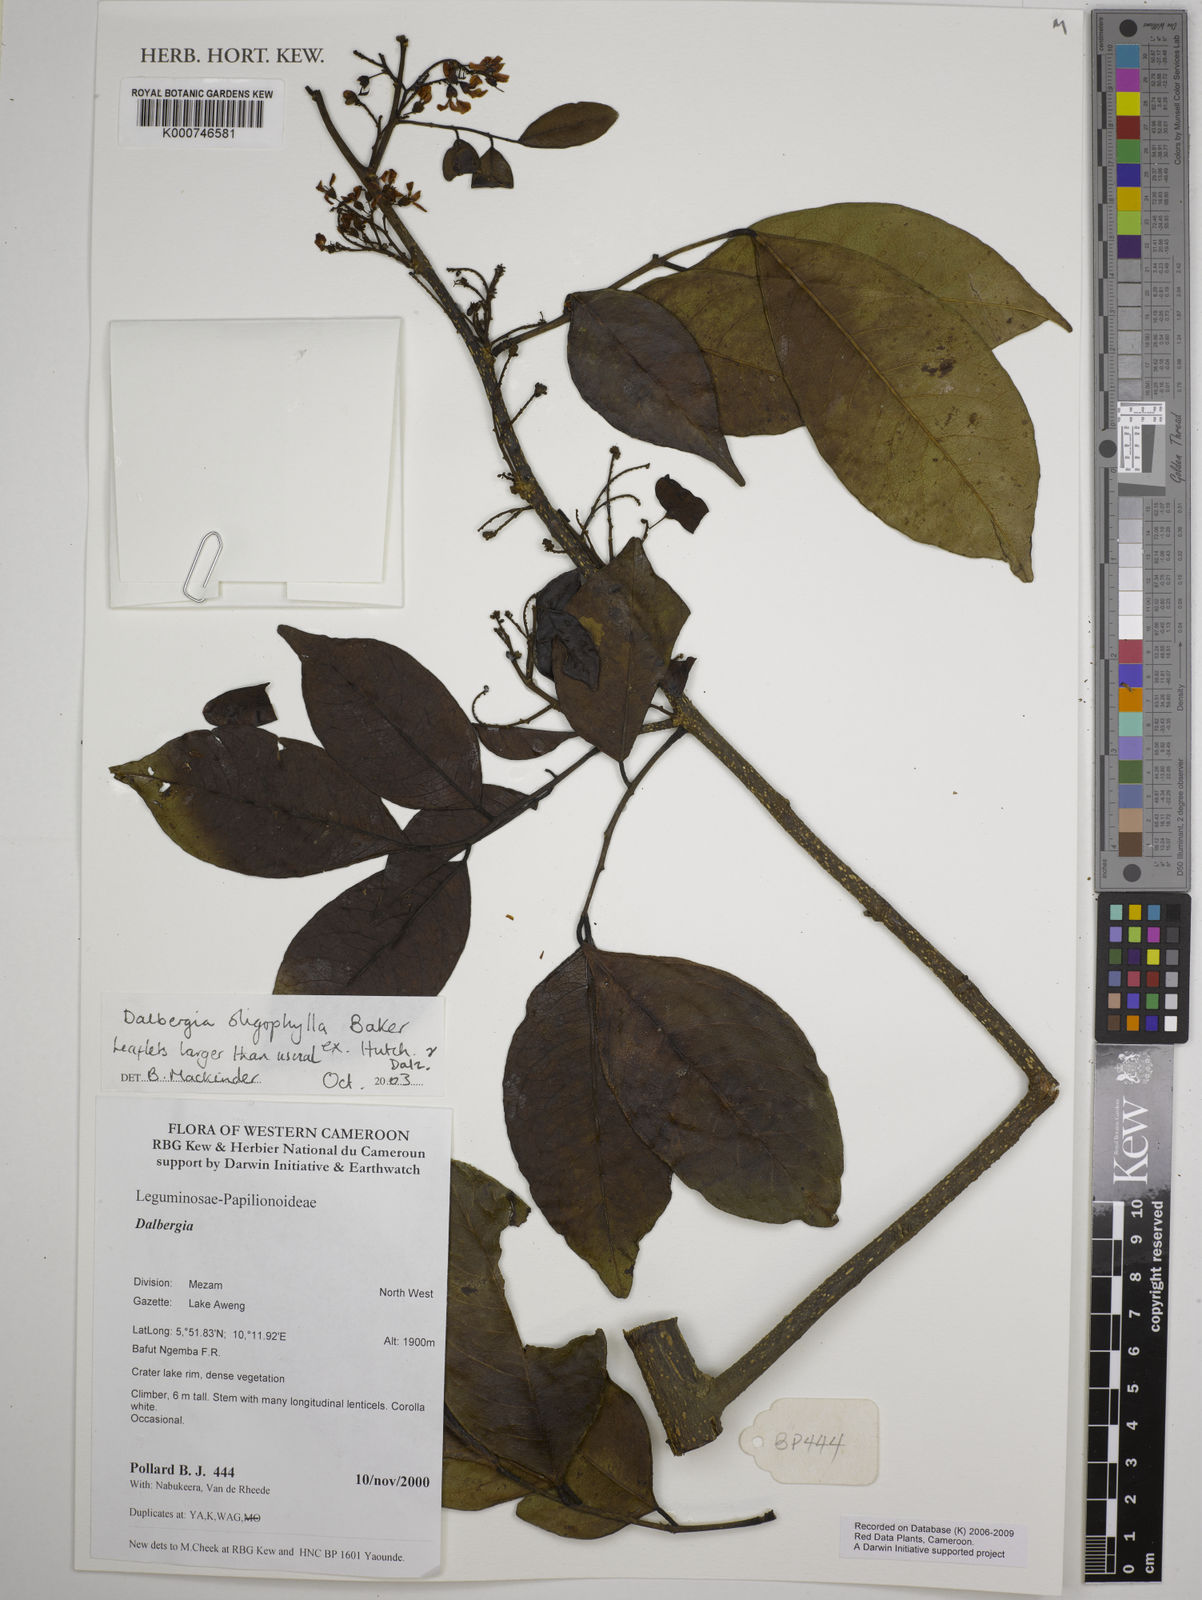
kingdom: Plantae
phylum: Tracheophyta
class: Magnoliopsida
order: Fabales
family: Fabaceae
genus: Dalbergia
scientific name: Dalbergia oligophylla
